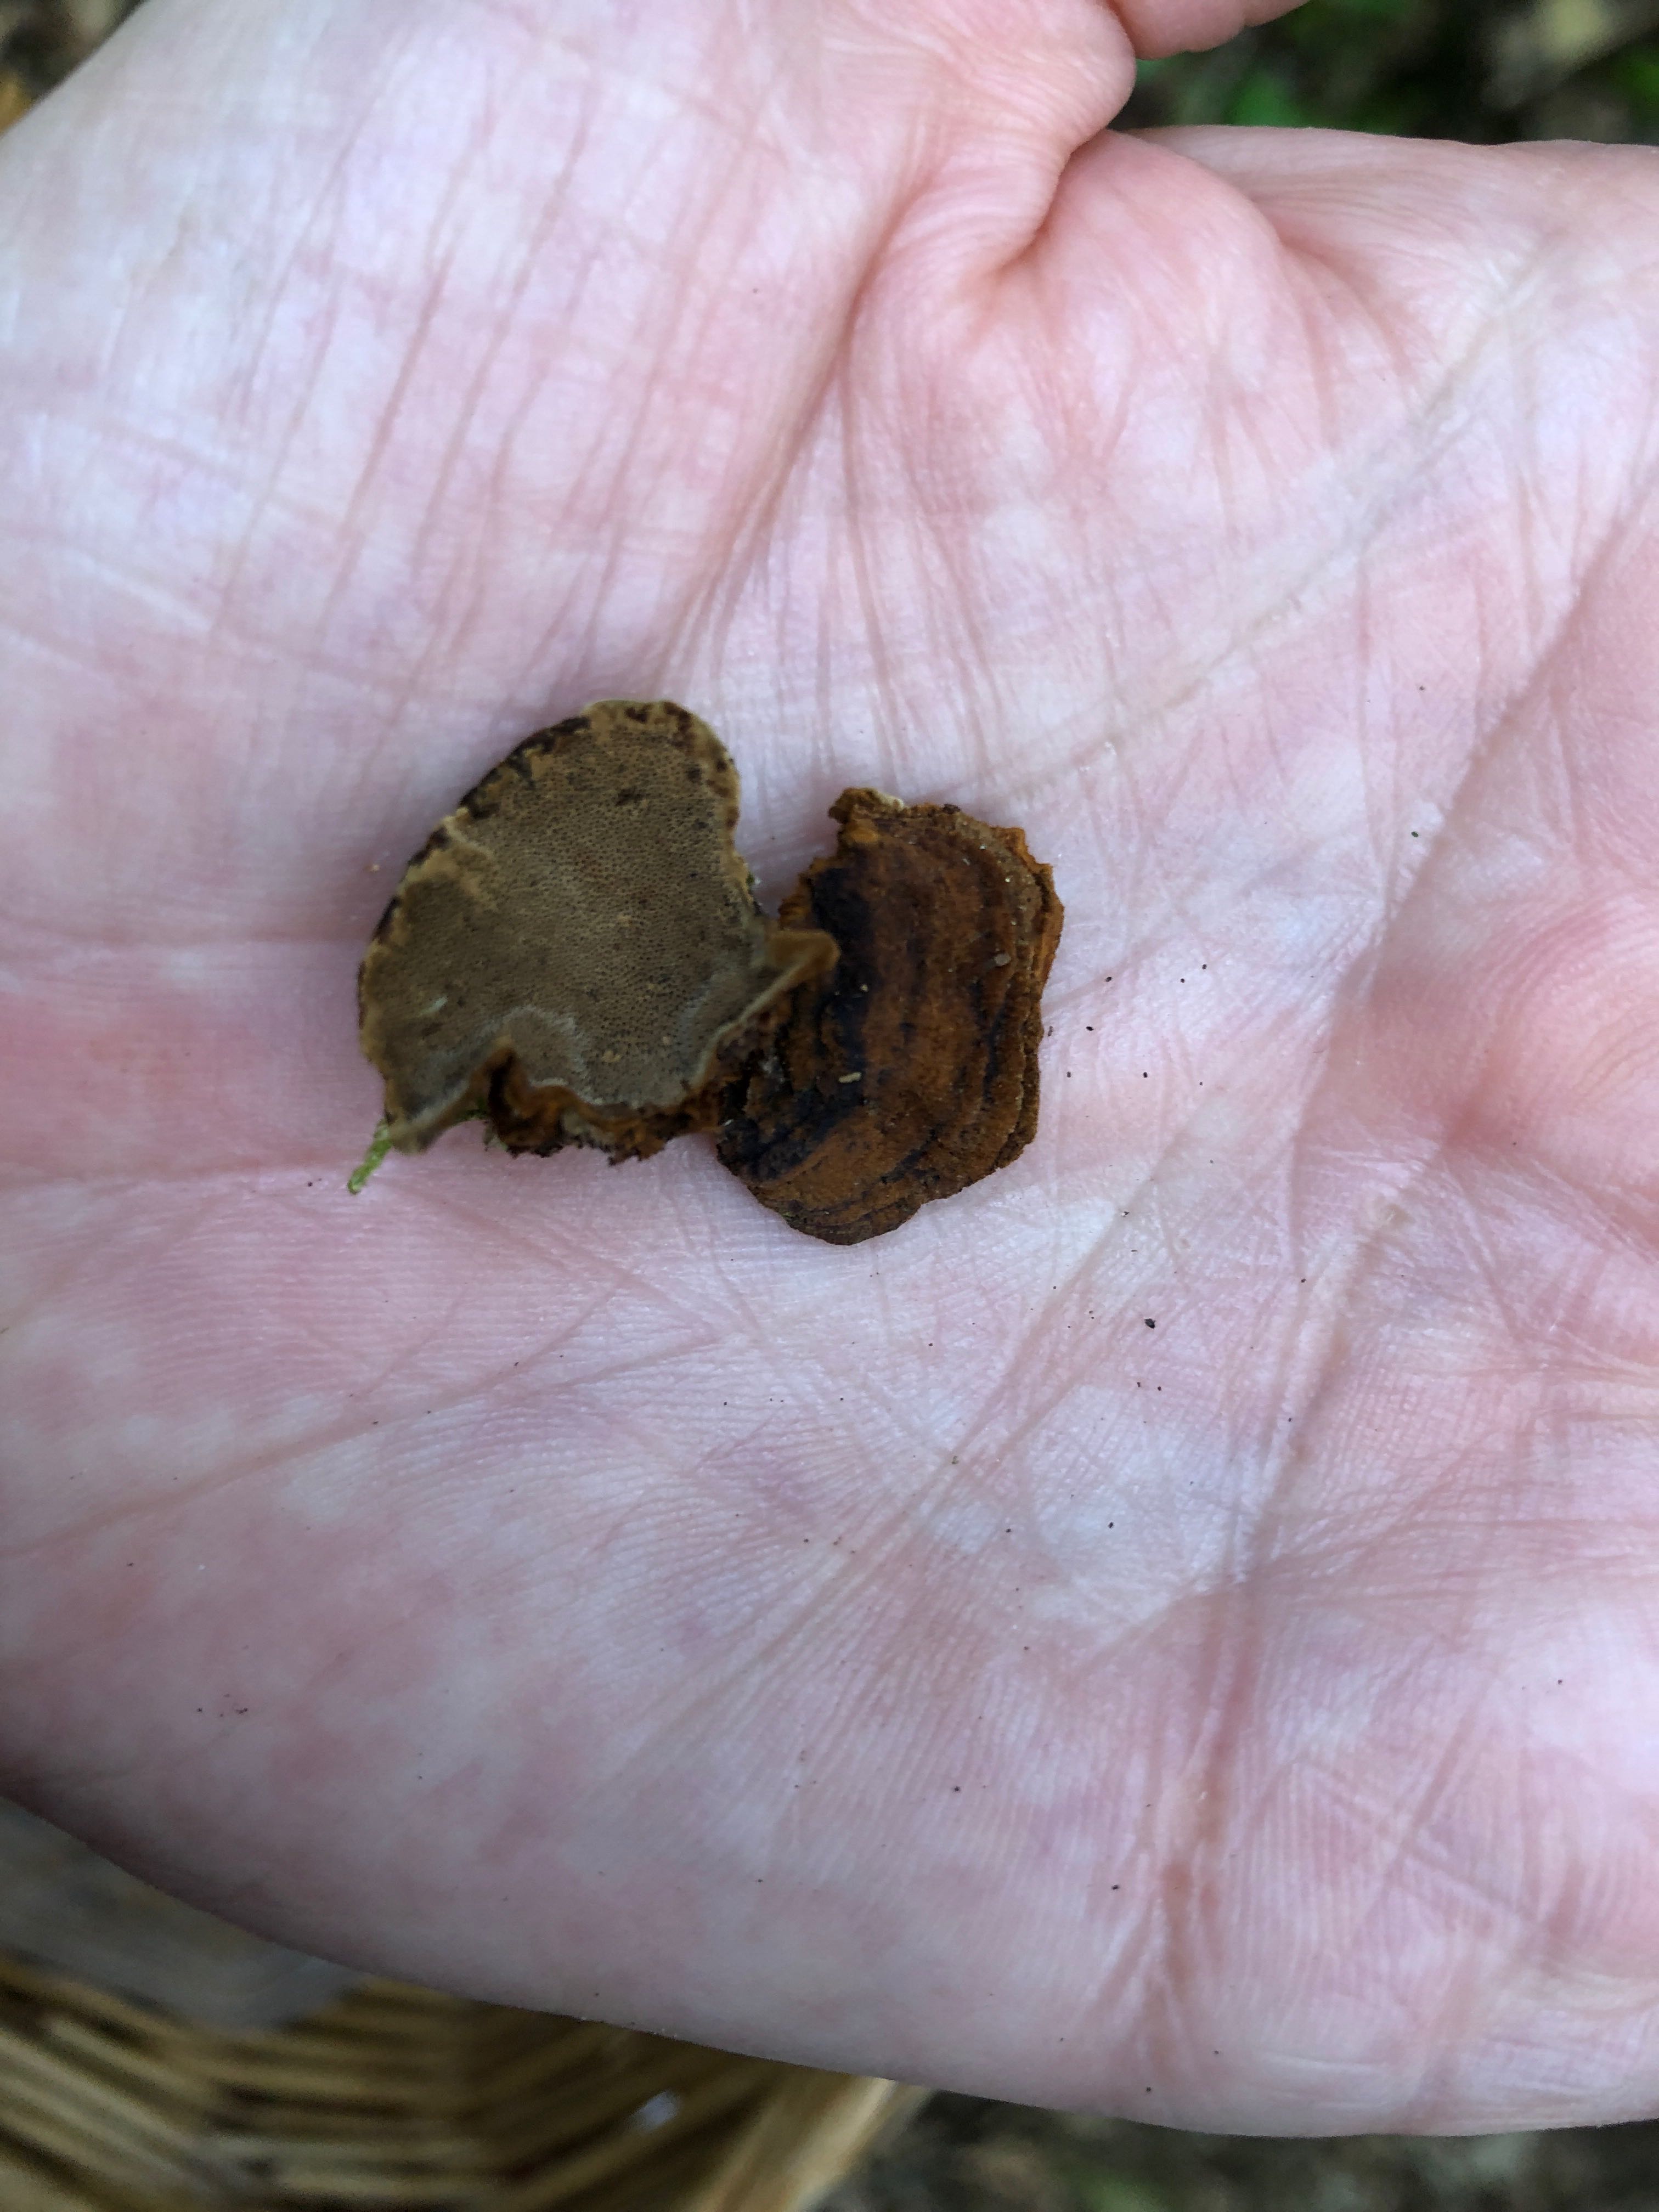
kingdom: Fungi
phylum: Basidiomycota
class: Agaricomycetes
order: Polyporales
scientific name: Polyporales
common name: poresvampordenen
